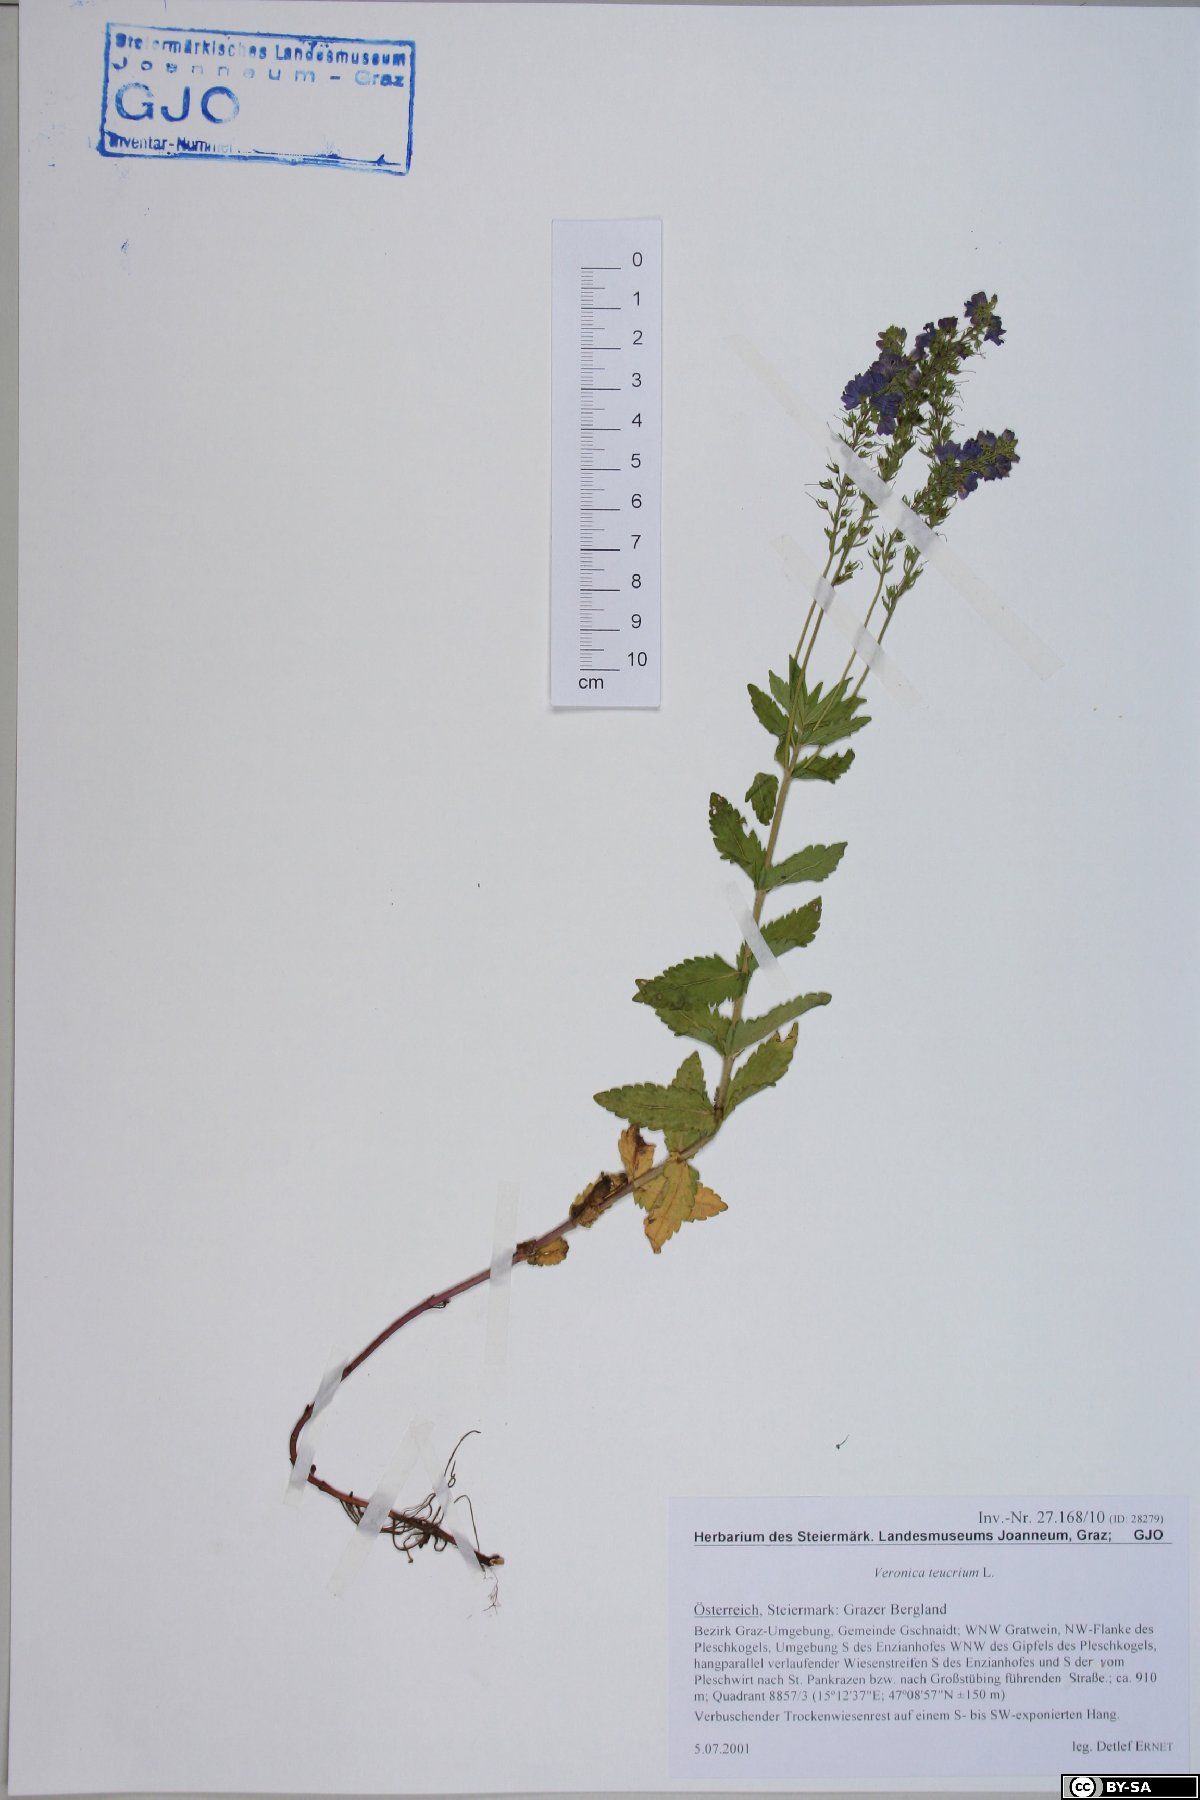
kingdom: Plantae
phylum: Tracheophyta
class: Magnoliopsida
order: Lamiales
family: Plantaginaceae
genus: Veronica
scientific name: Veronica teucrium
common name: Large speedwell
